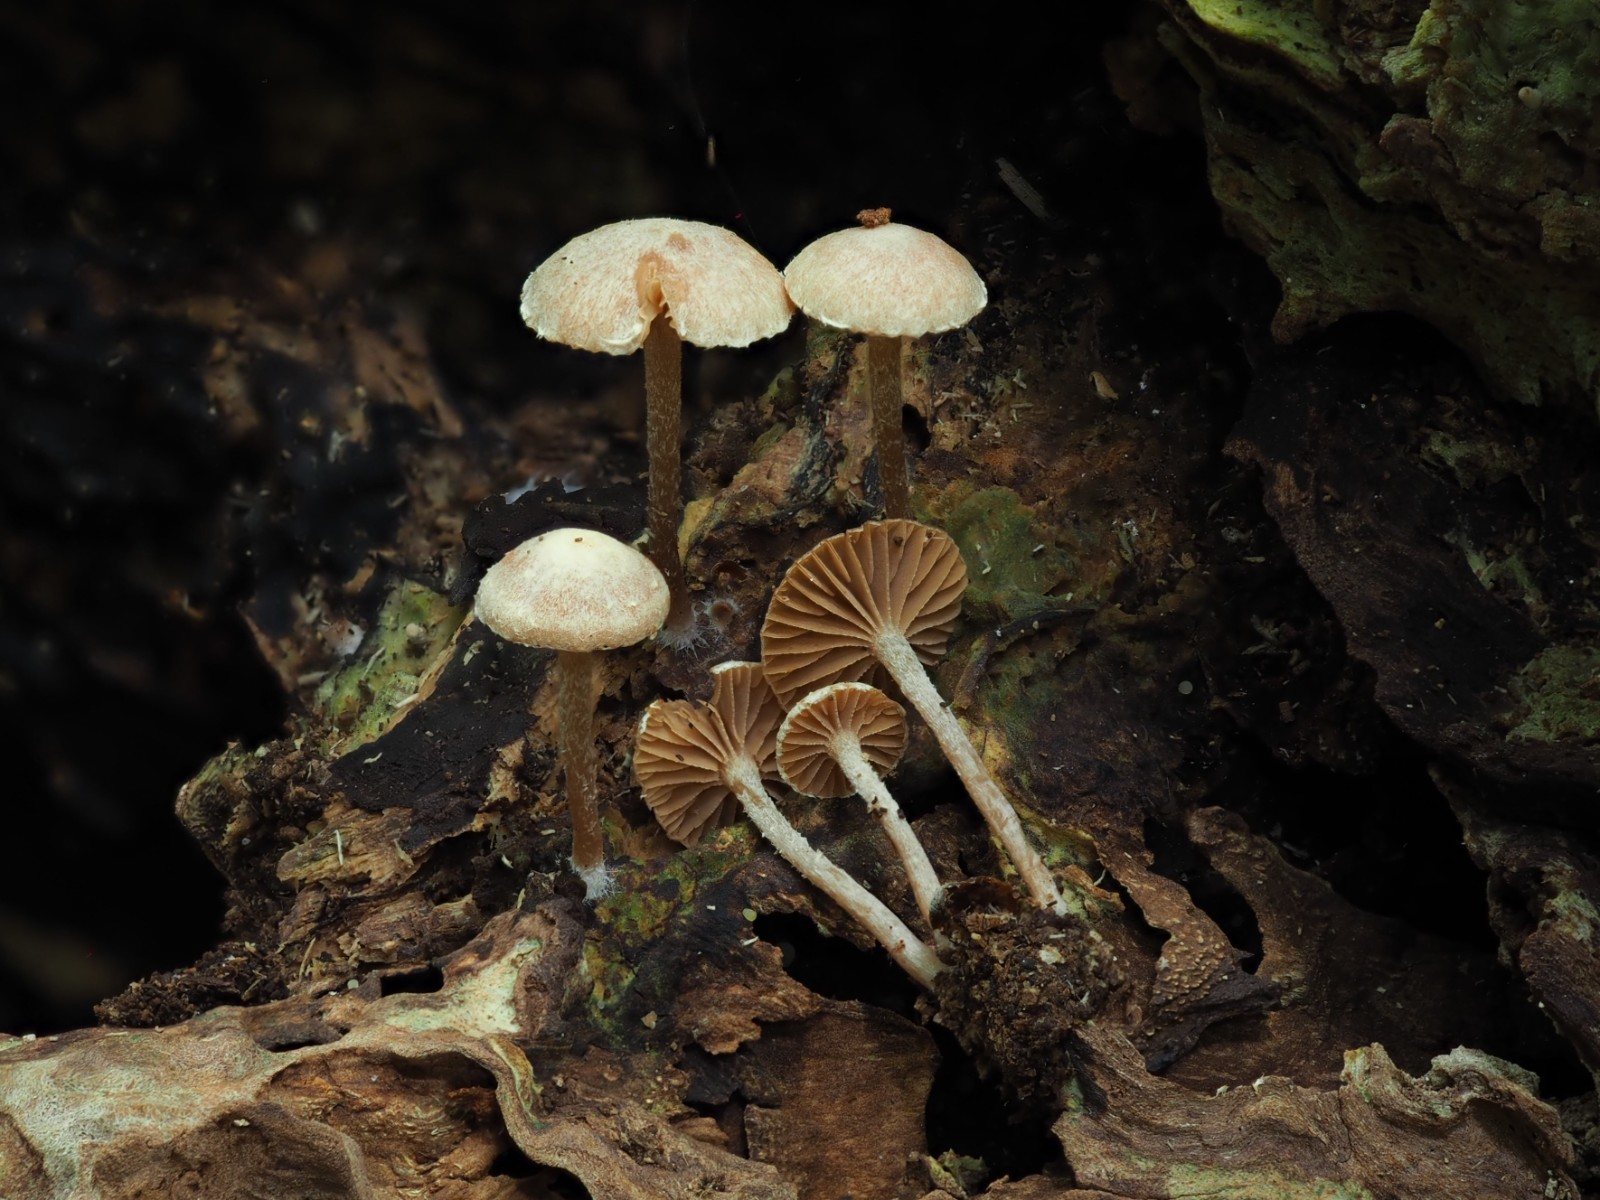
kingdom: Fungi
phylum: Basidiomycota
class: Agaricomycetes
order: Agaricales
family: Tubariaceae
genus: Tubaria
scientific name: Tubaria conspersa
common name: bleg fnughat
